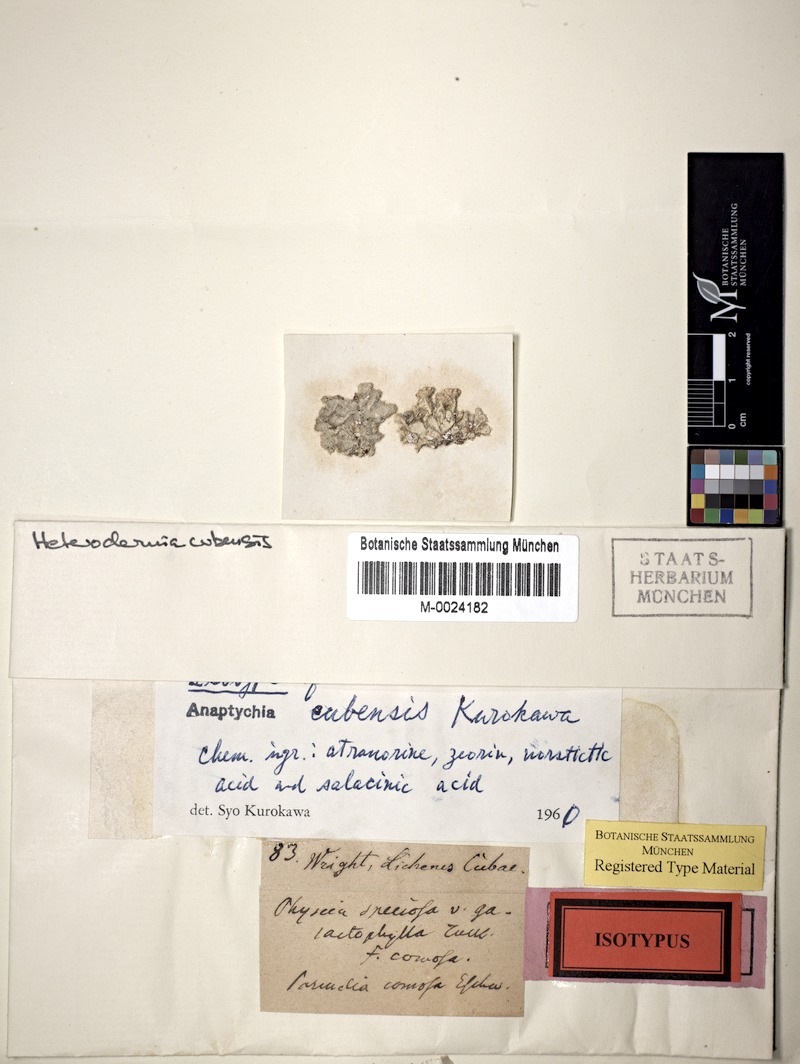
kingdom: Fungi
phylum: Ascomycota
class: Lecanoromycetes
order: Caliciales
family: Physciaceae
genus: Heterodermia
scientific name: Heterodermia
